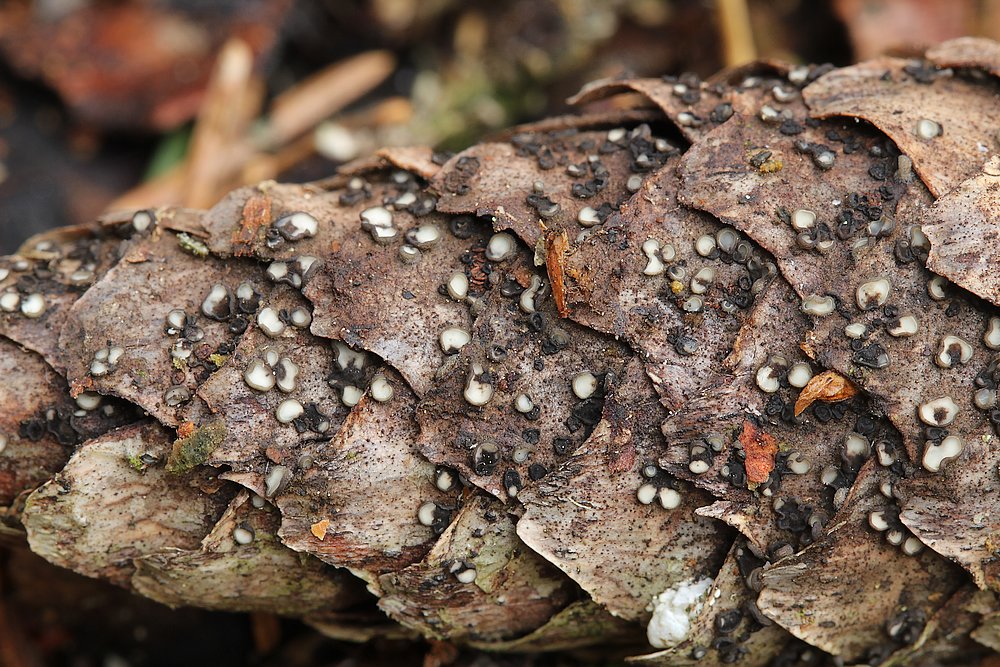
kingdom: Fungi
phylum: Ascomycota
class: Leotiomycetes
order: Helotiales
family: Mollisiaceae
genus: Tapesia
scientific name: Tapesia lividofusca
